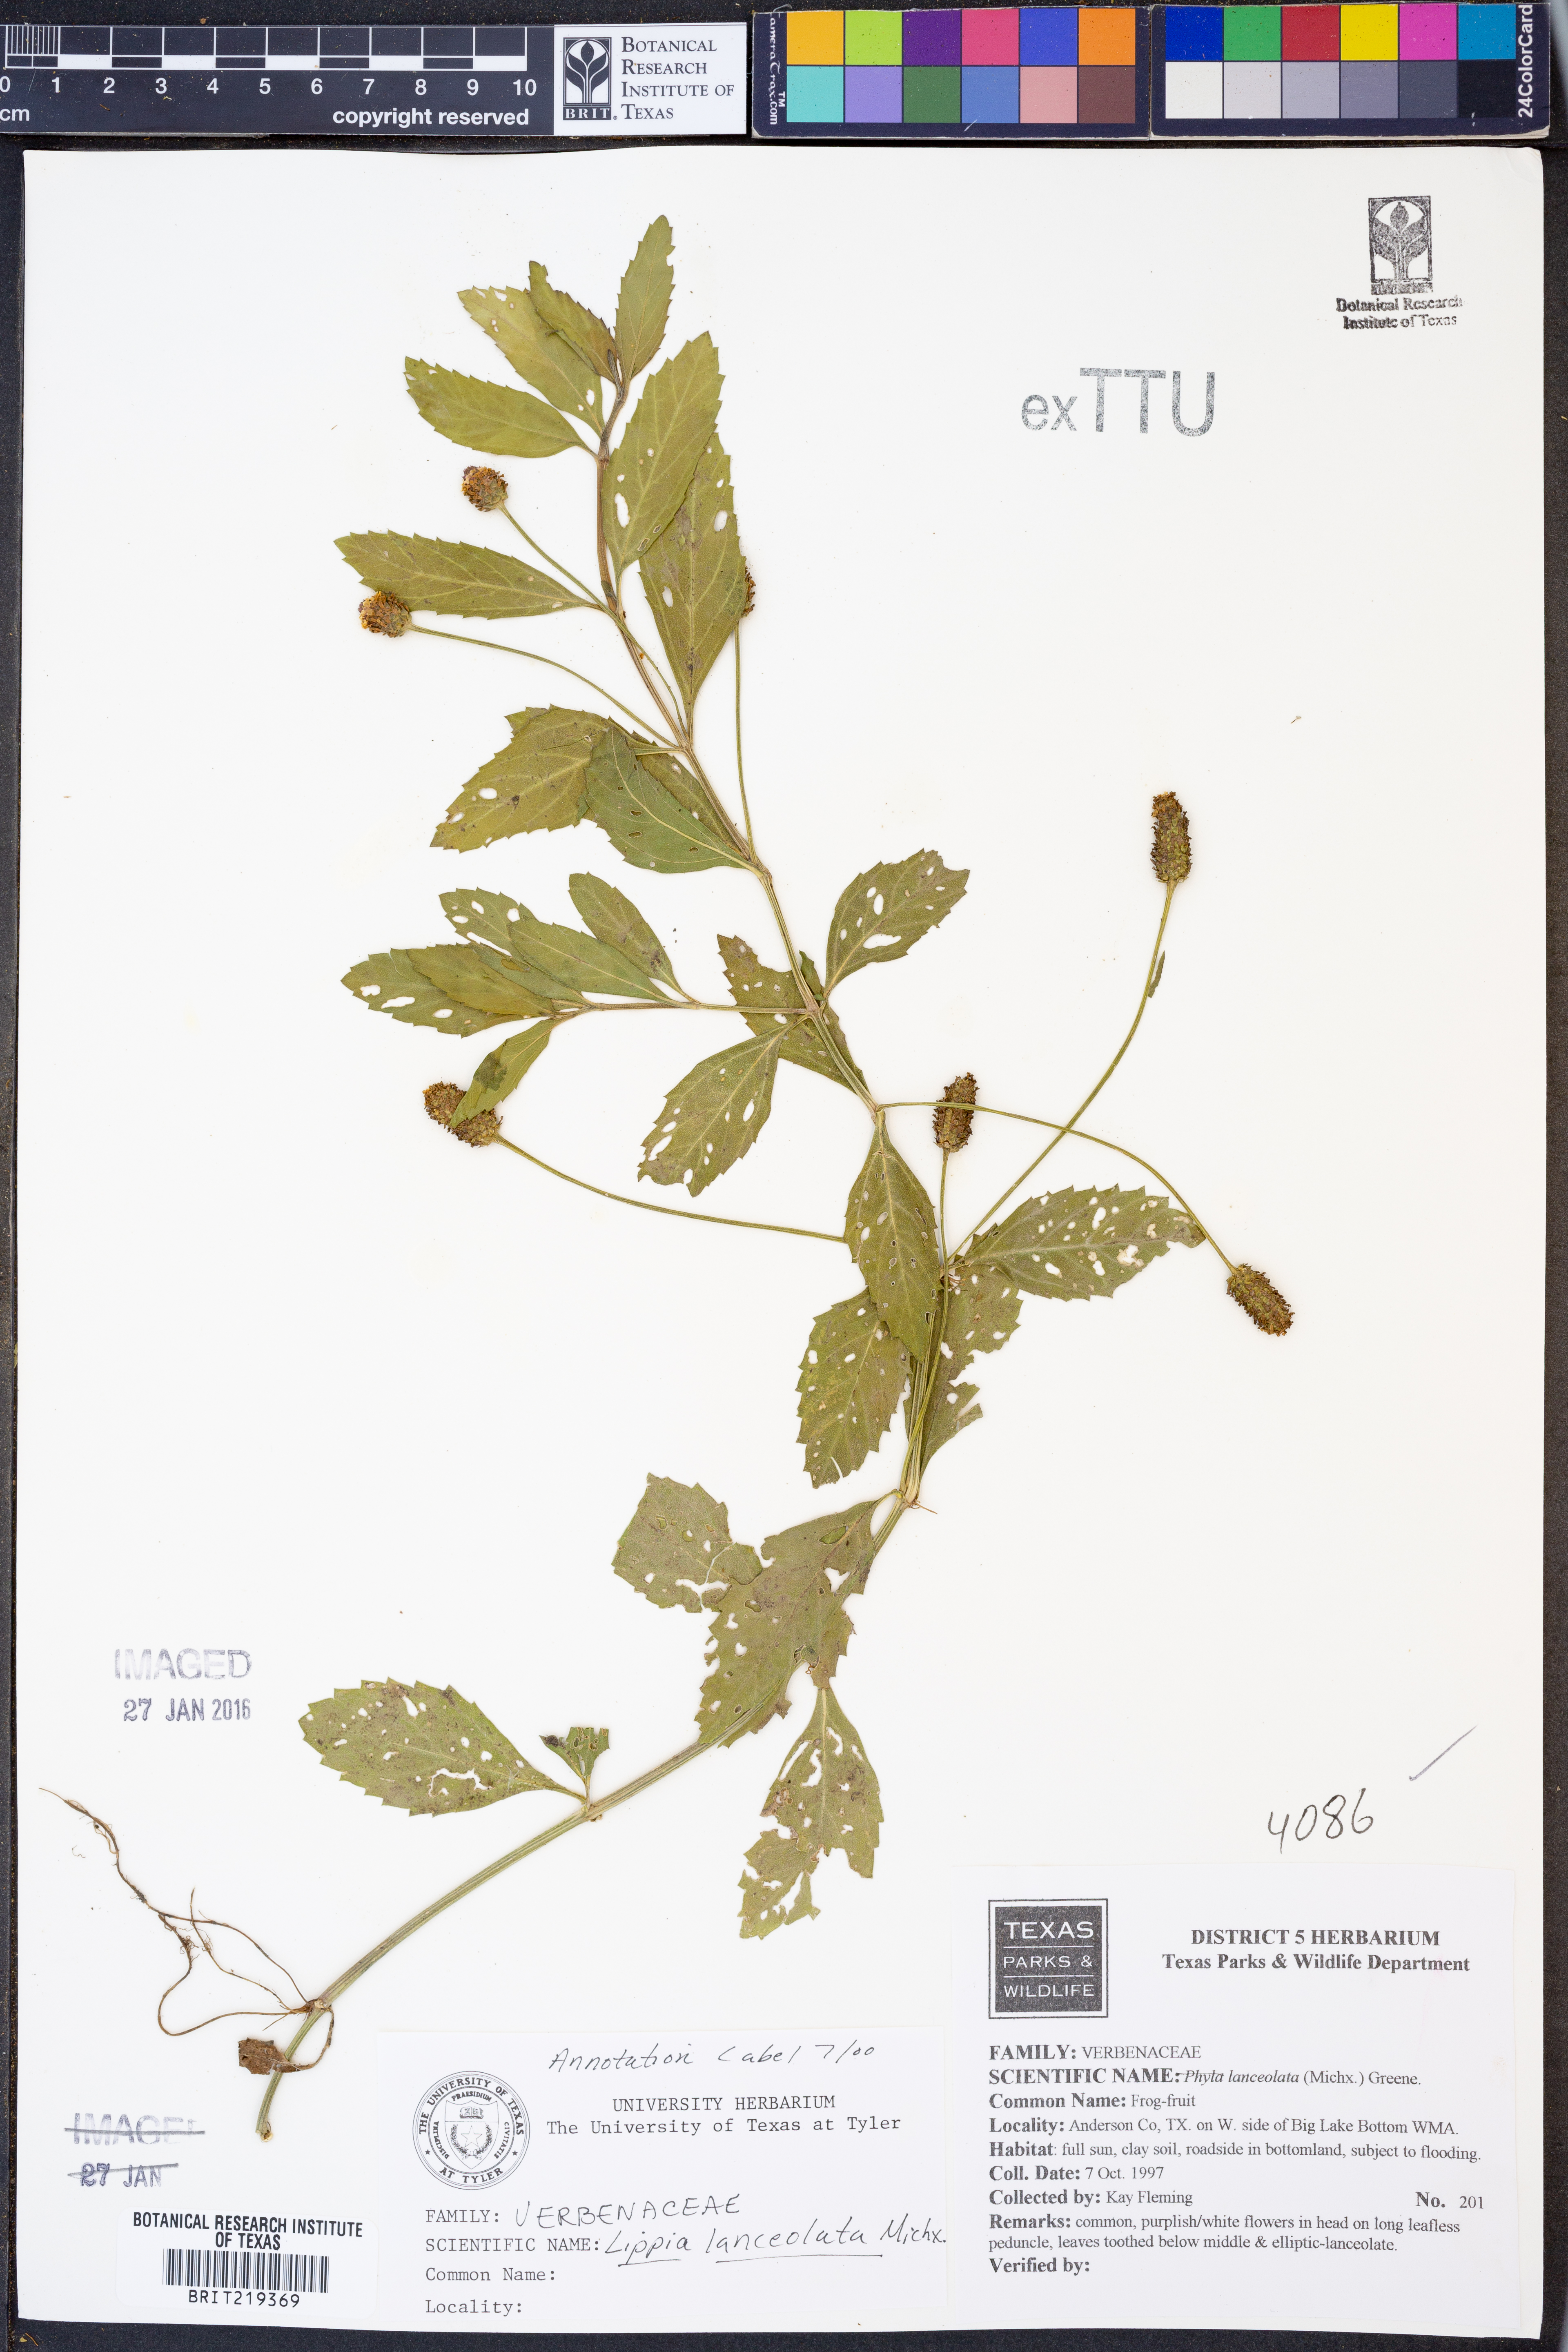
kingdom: Plantae
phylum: Tracheophyta
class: Magnoliopsida
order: Lamiales
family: Verbenaceae
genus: Phyla
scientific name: Phyla lanceolata
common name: Northern fogfruit
